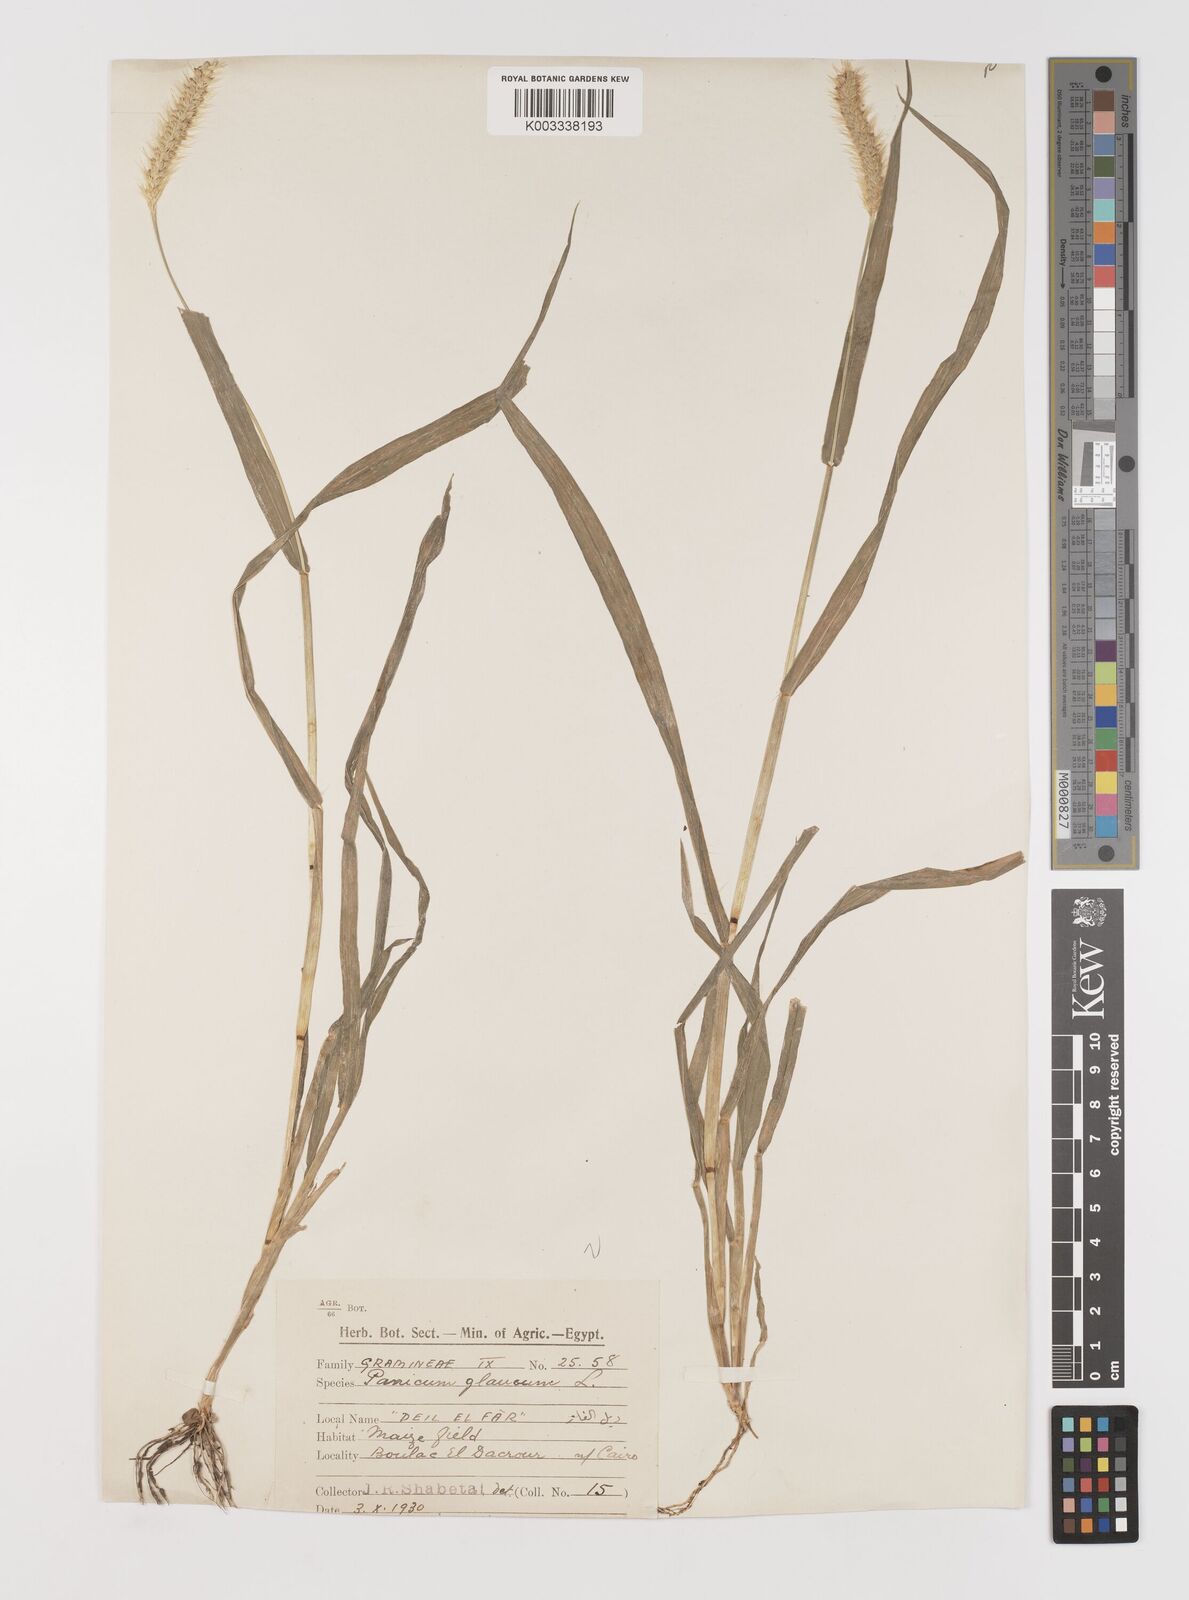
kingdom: Plantae
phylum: Tracheophyta
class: Liliopsida
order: Poales
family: Poaceae
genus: Setaria
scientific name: Setaria pumila
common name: Yellow bristle-grass
